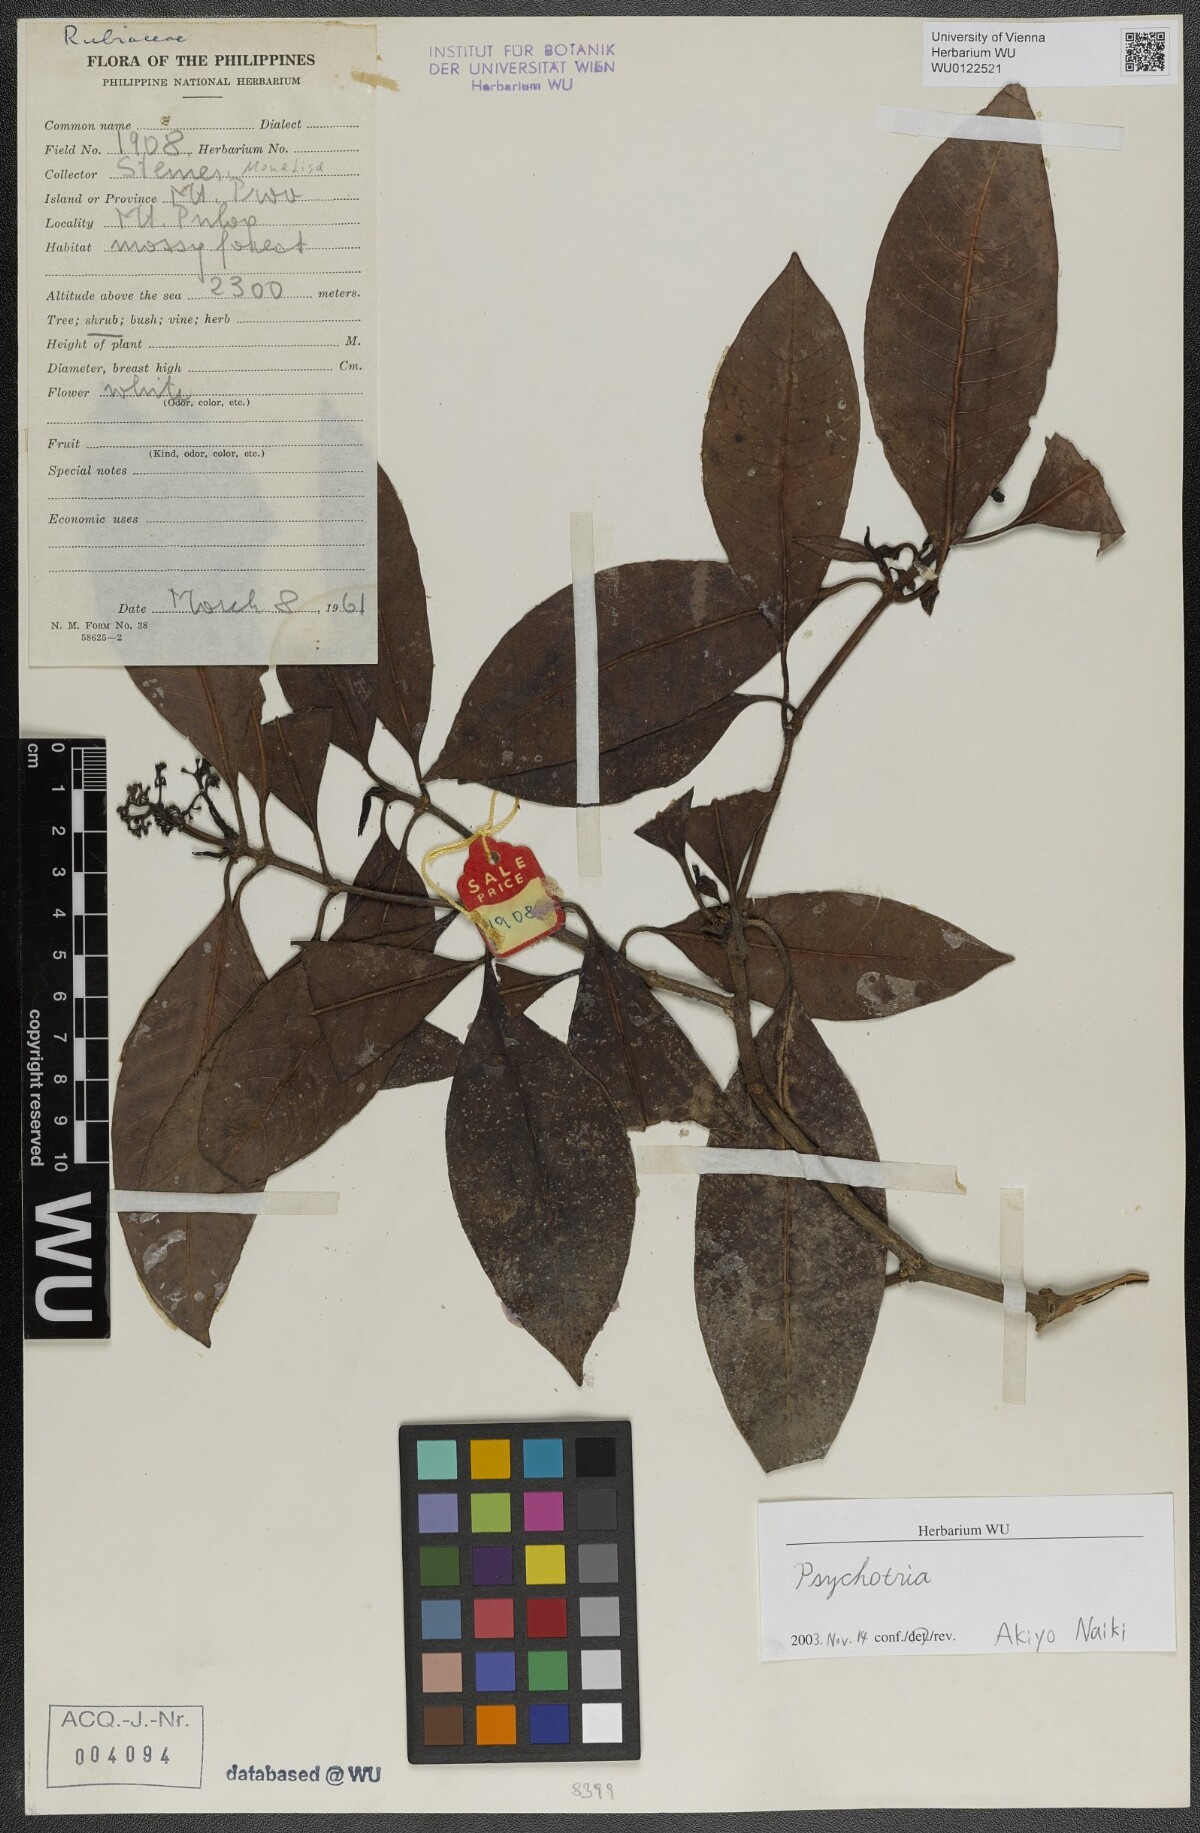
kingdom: Plantae
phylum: Tracheophyta
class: Magnoliopsida
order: Gentianales
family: Rubiaceae
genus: Psychotria
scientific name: Psychotria
